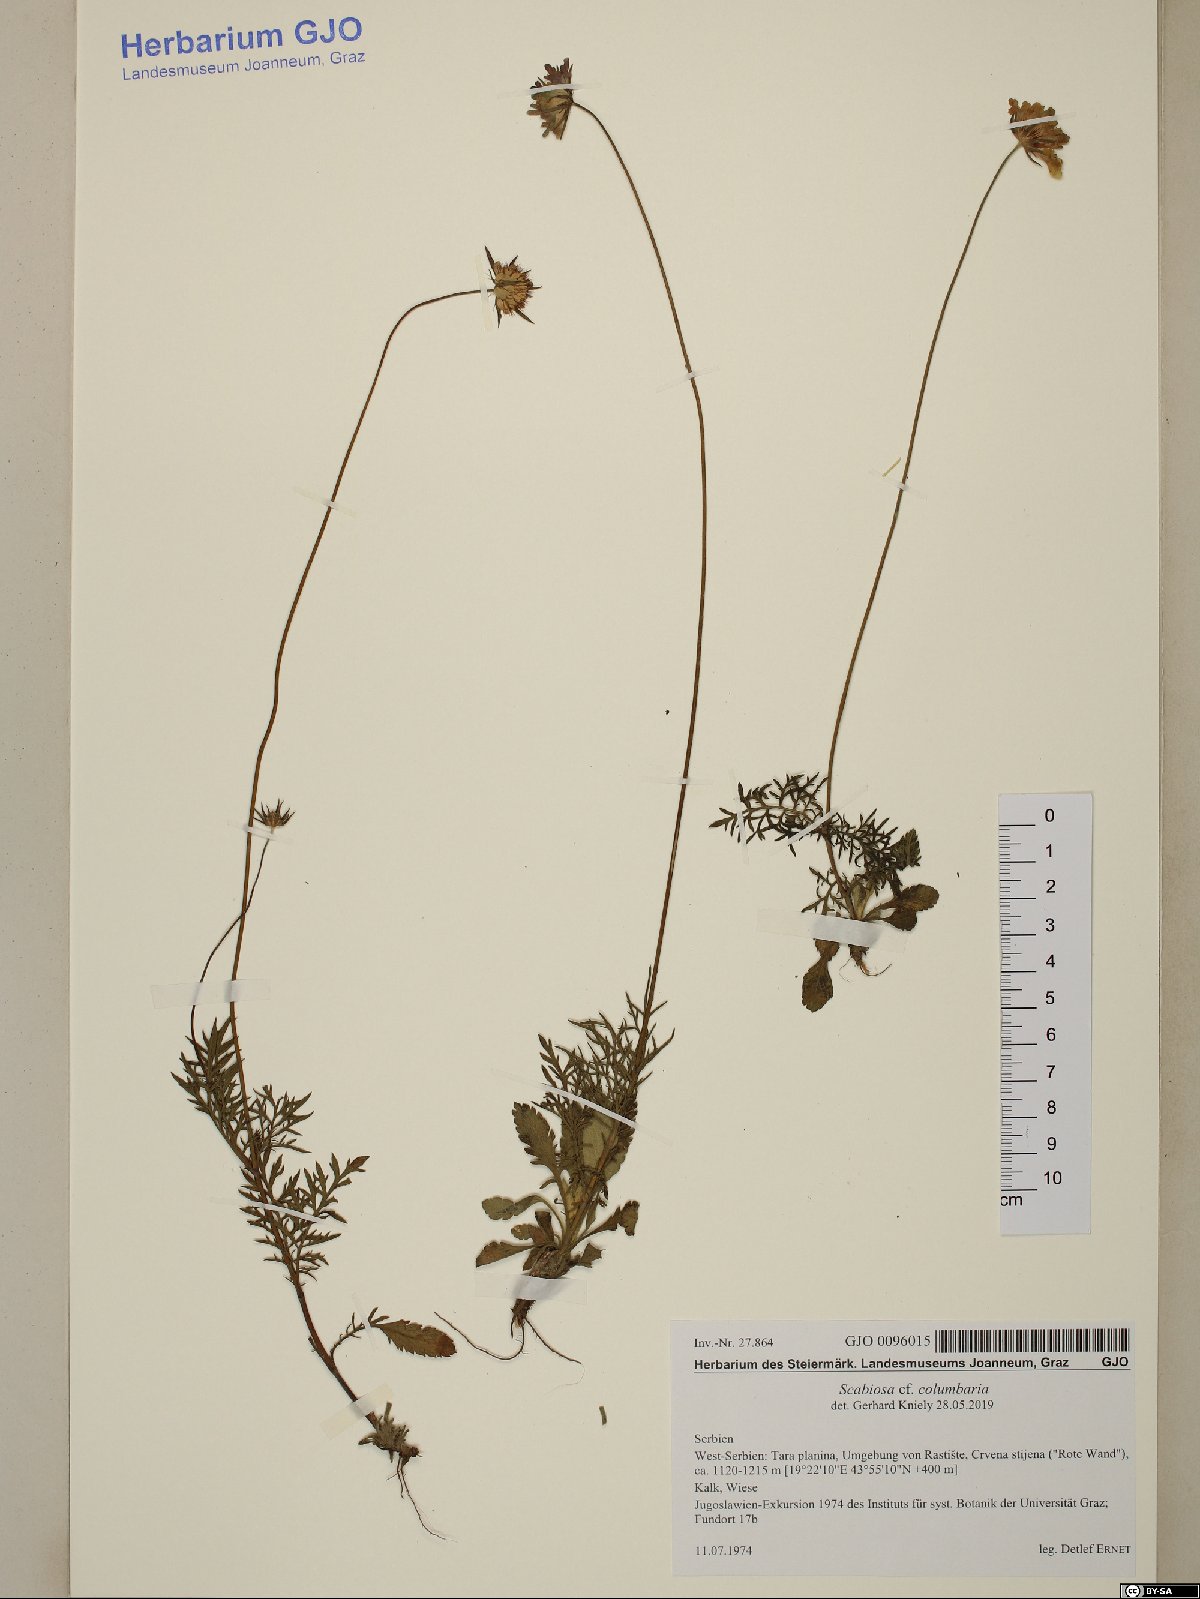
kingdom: Plantae
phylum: Tracheophyta
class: Magnoliopsida
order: Dipsacales
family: Caprifoliaceae
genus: Scabiosa
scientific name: Scabiosa columbaria
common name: Small scabious
